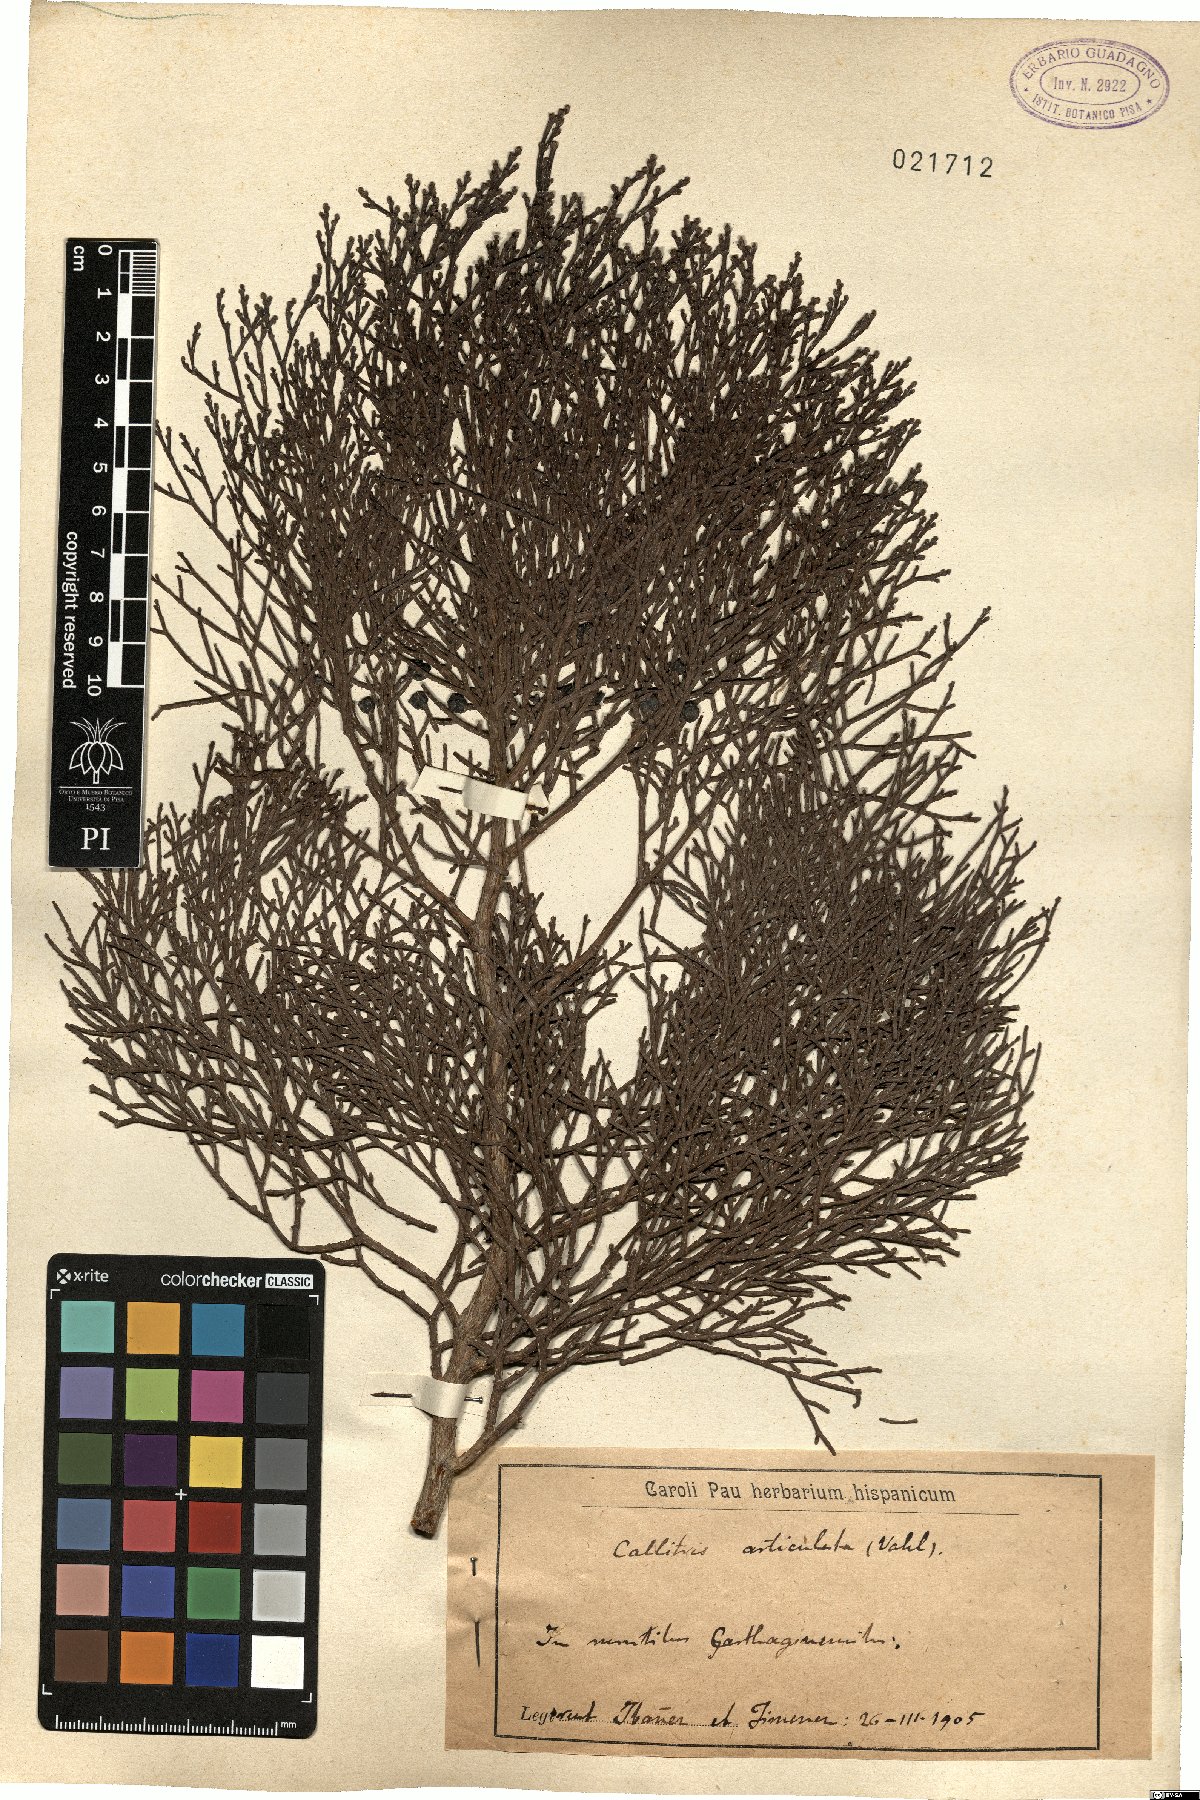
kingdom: Plantae
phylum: Tracheophyta
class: Pinopsida
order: Pinales
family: Cupressaceae
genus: Tetraclinis
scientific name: Tetraclinis articulata
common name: Sandarac
